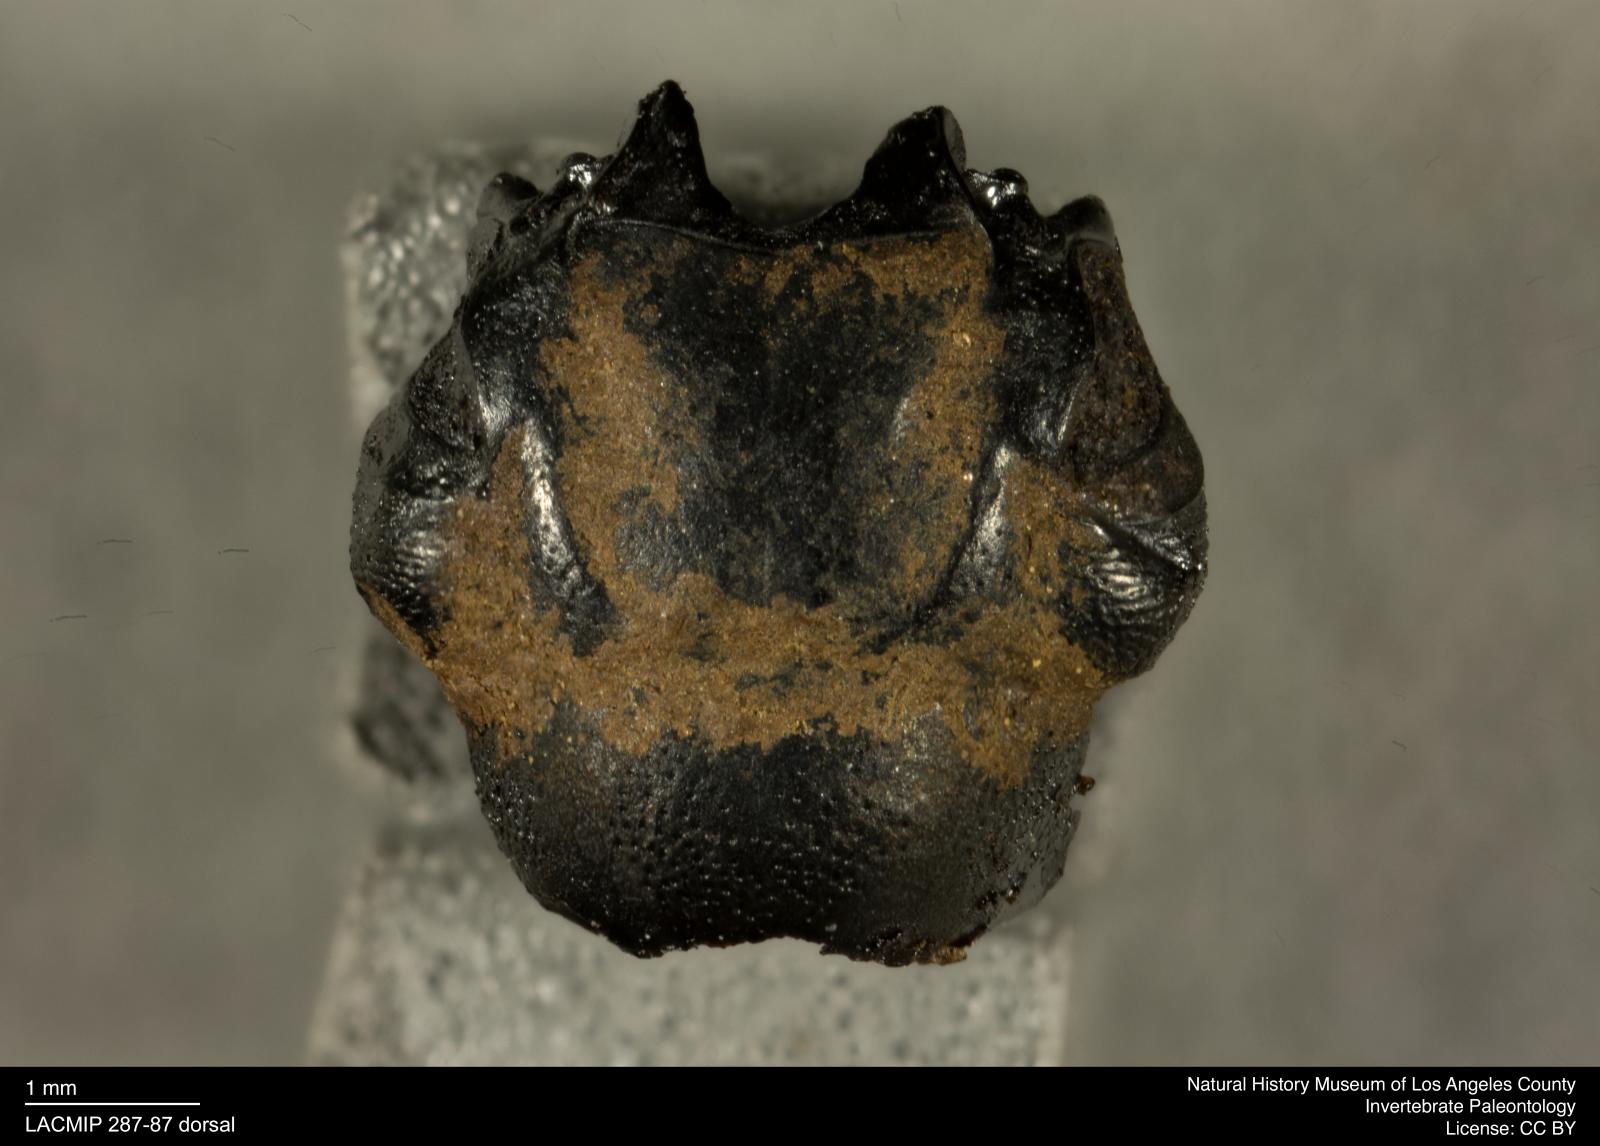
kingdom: Animalia
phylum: Arthropoda
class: Insecta
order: Coleoptera
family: Staphylinidae
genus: Nicrophorus
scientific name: Nicrophorus marginatus
